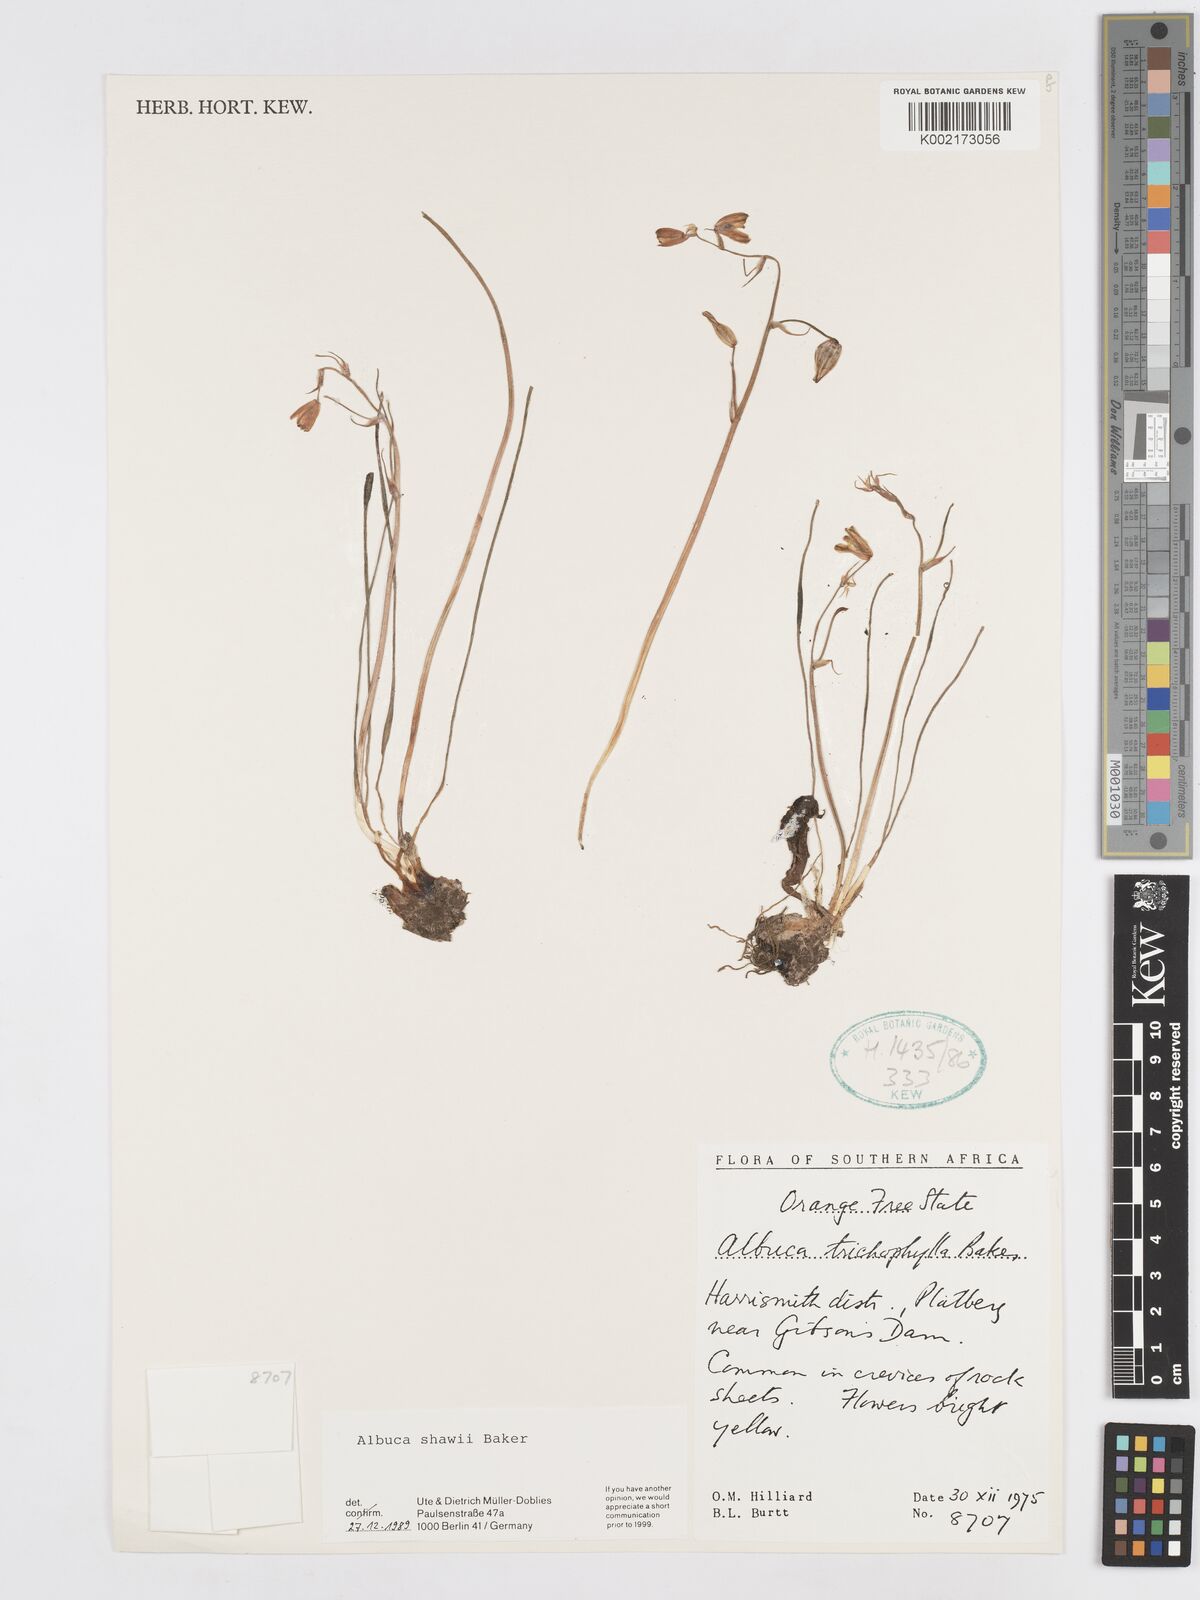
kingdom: Plantae
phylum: Tracheophyta
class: Liliopsida
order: Asparagales
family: Asparagaceae
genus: Albuca
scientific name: Albuca shawii
